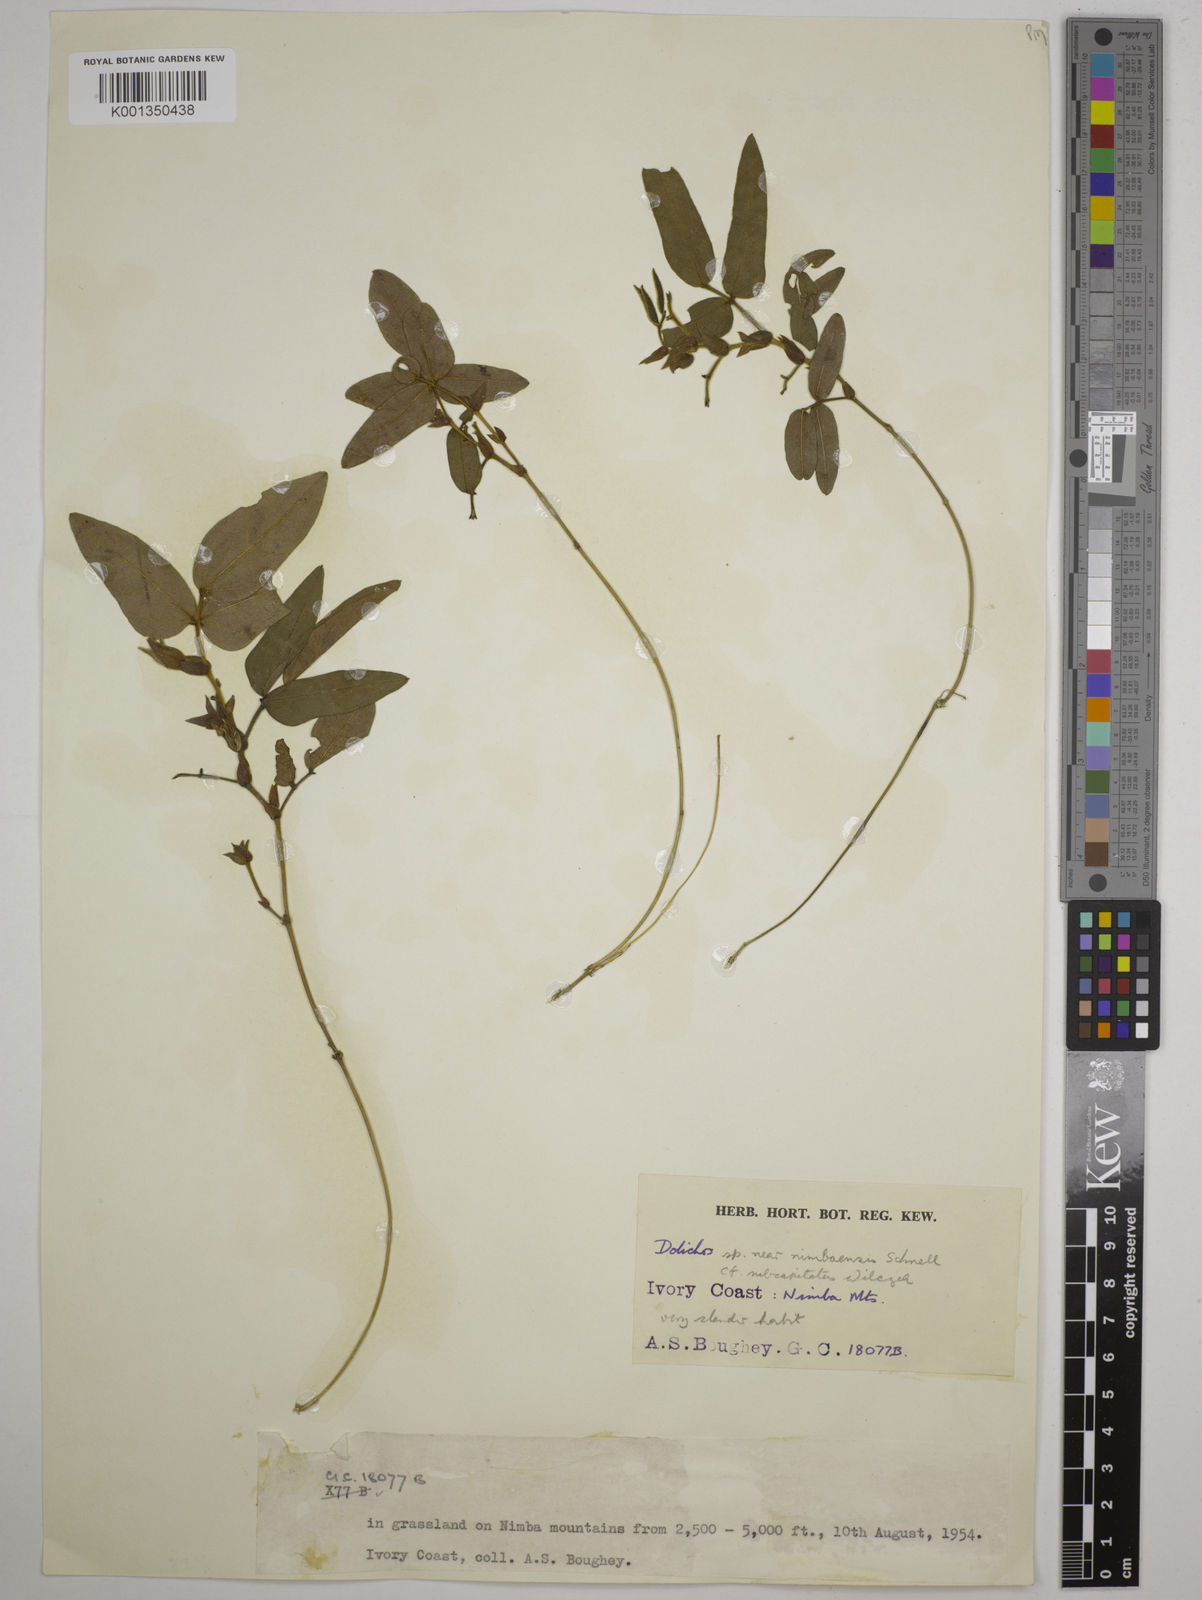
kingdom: Plantae
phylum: Tracheophyta
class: Magnoliopsida
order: Fabales
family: Fabaceae
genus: Dolichos
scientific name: Dolichos nimbaensis
